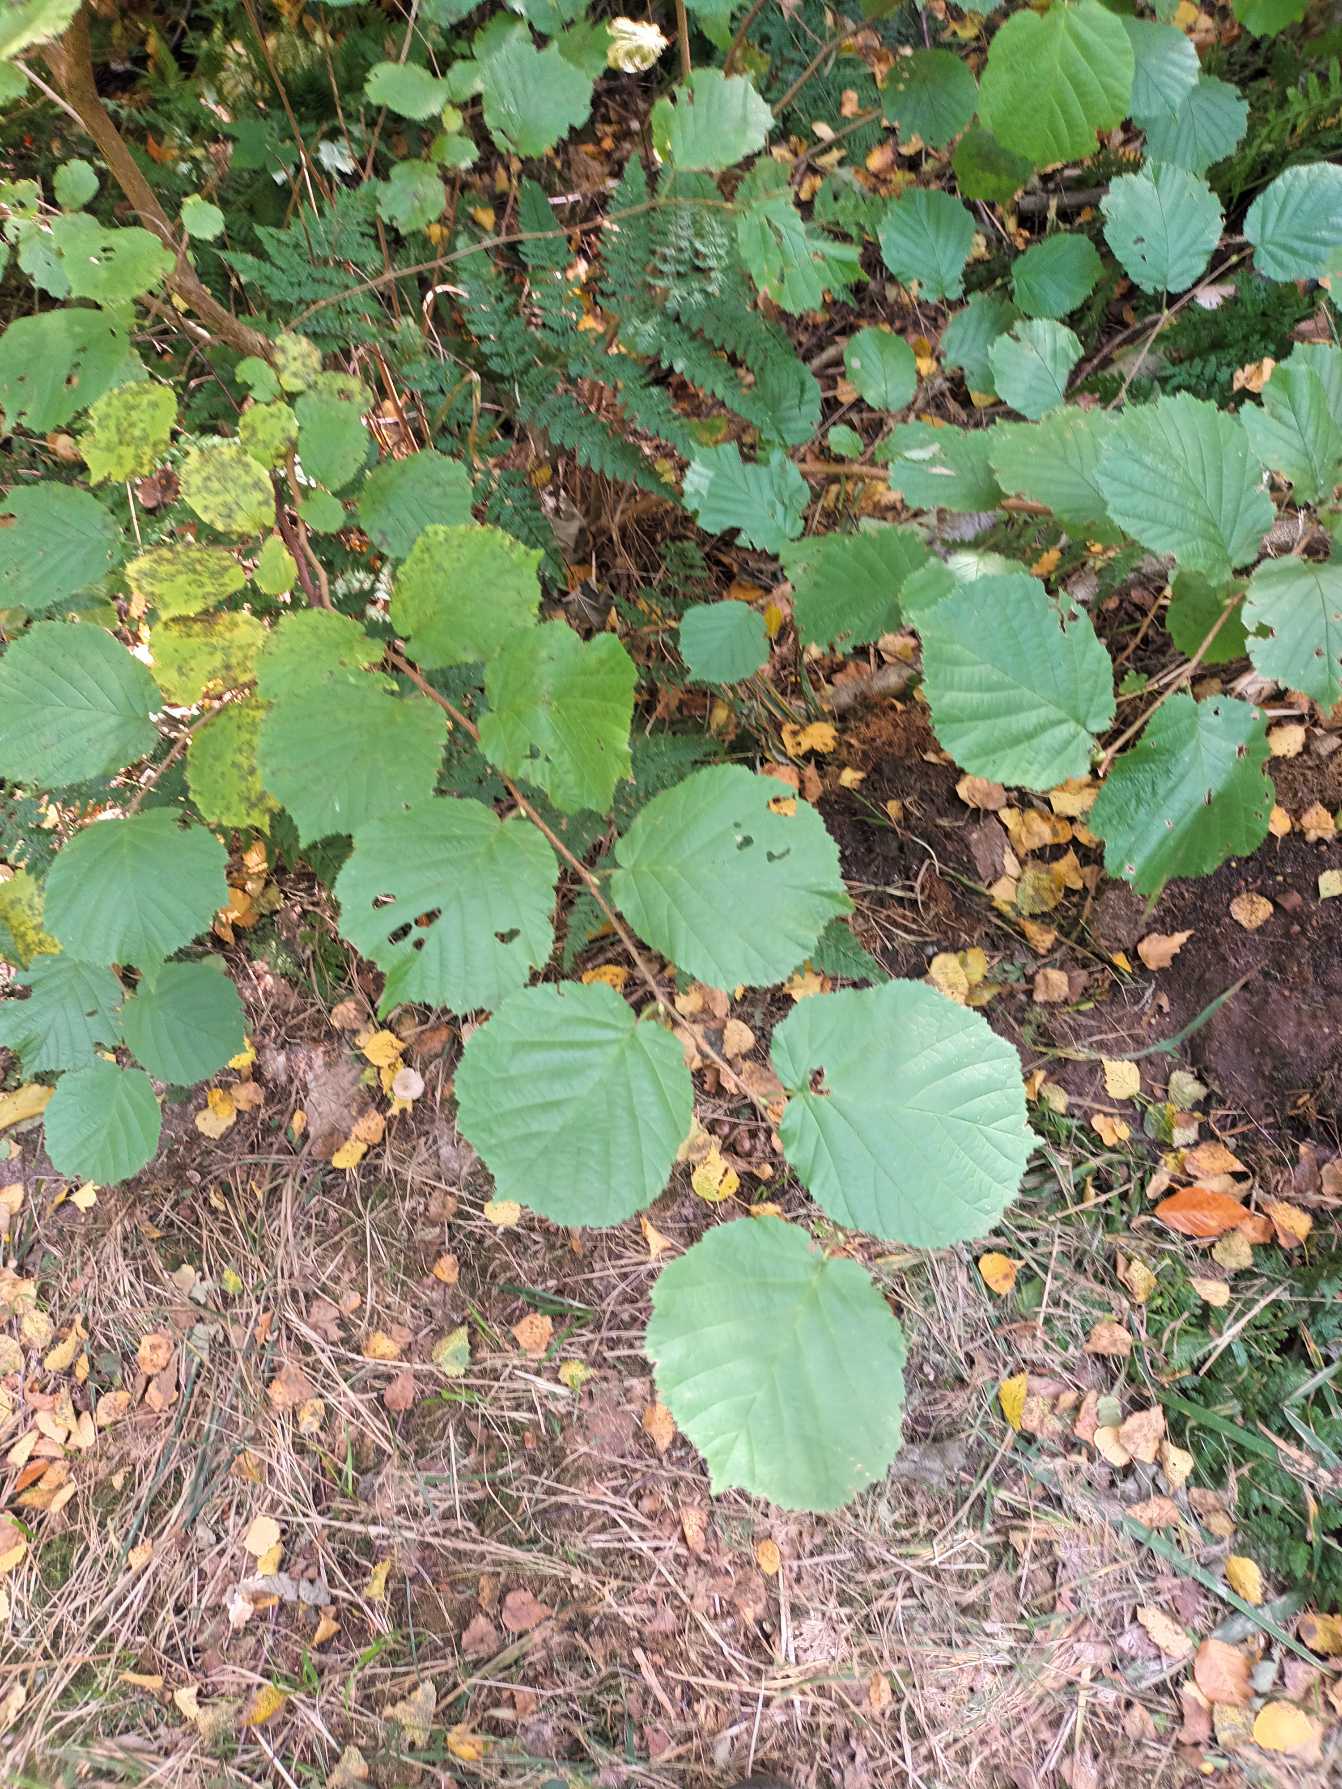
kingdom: Plantae
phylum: Tracheophyta
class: Magnoliopsida
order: Fagales
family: Betulaceae
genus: Corylus
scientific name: Corylus avellana
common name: Hassel
